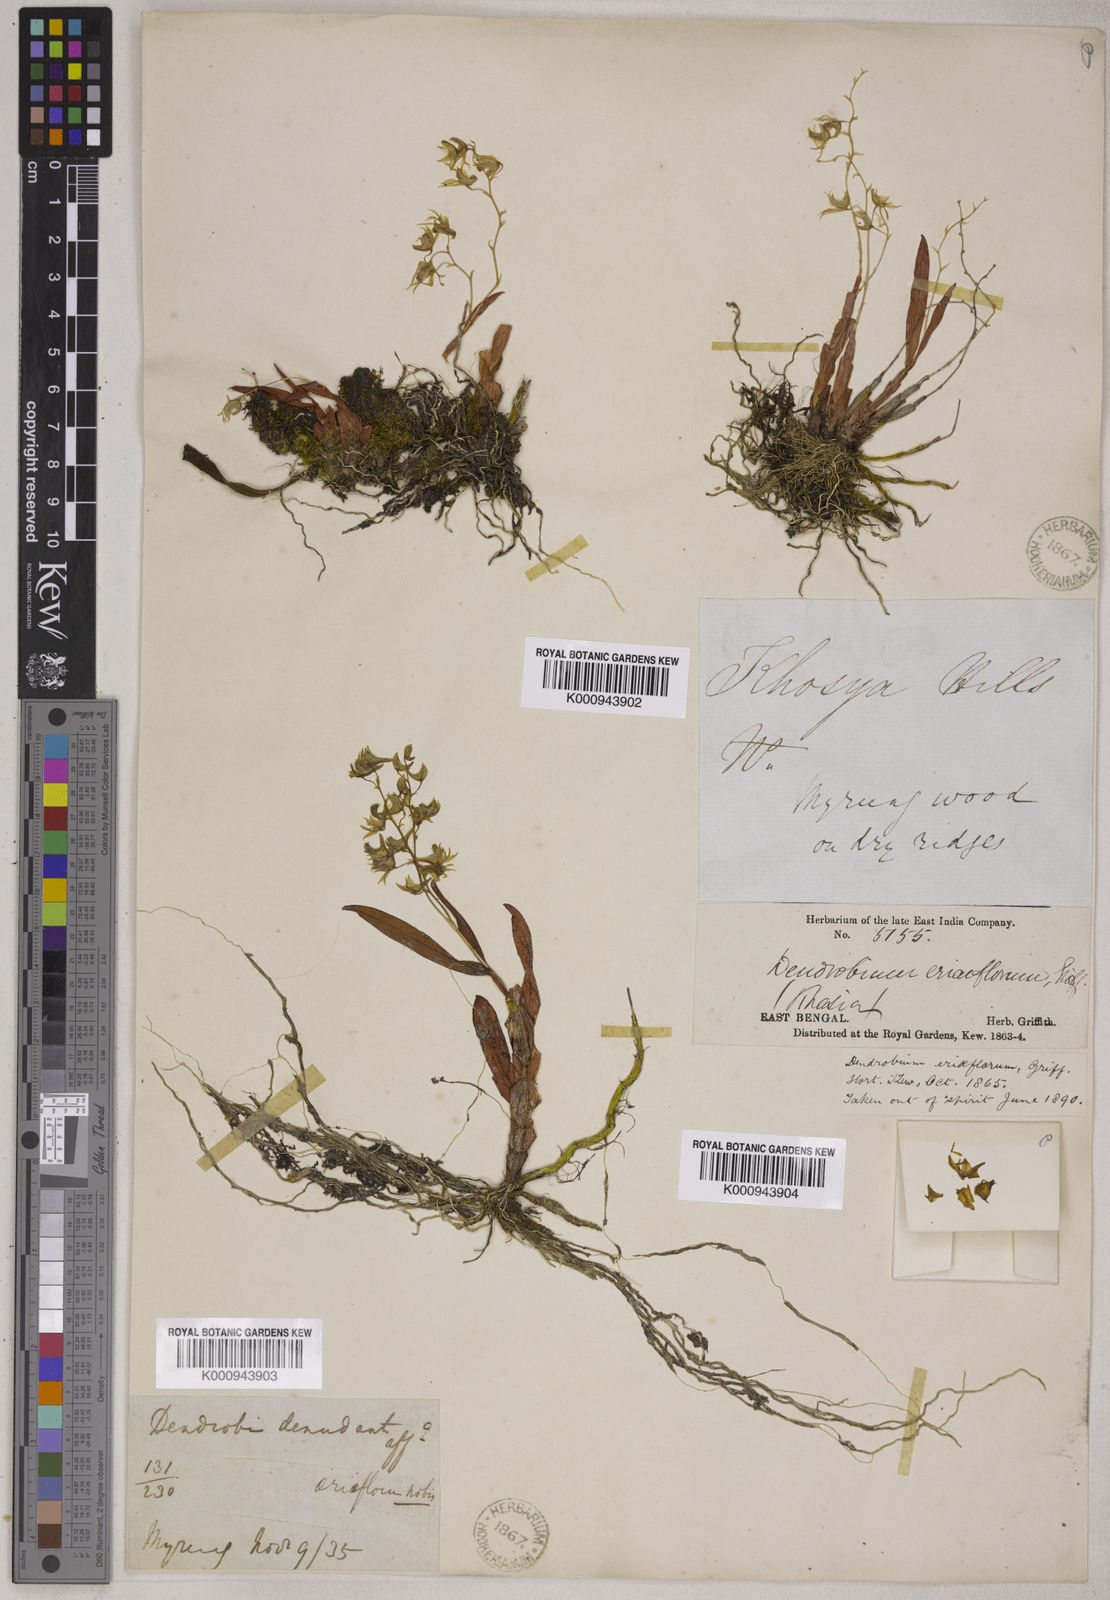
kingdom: Plantae
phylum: Tracheophyta
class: Liliopsida
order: Asparagales
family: Orchidaceae
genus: Dendrobium
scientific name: Dendrobium eriiflorum
